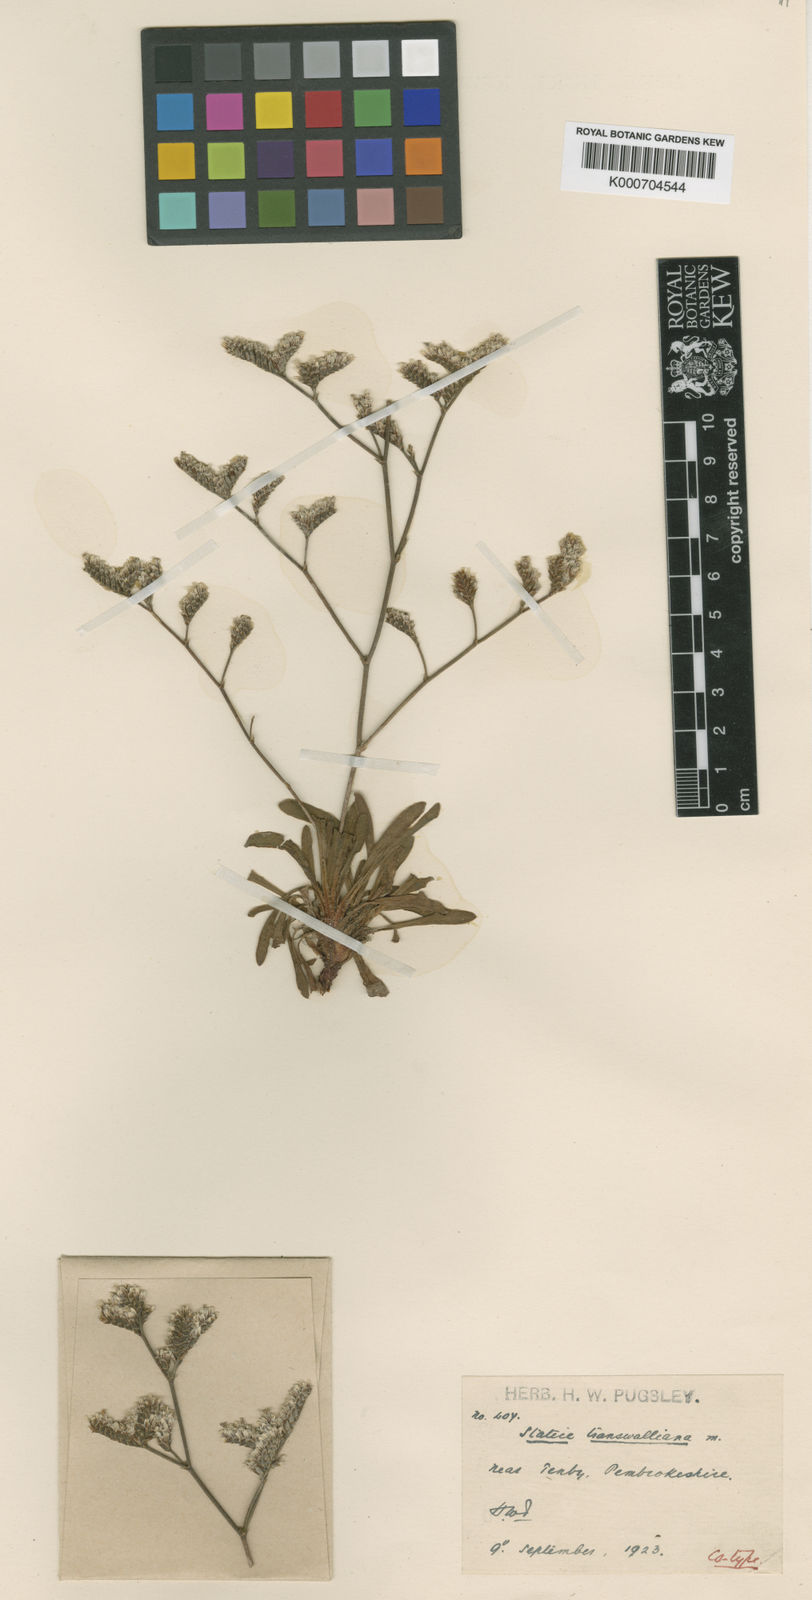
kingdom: Plantae
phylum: Tracheophyta
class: Magnoliopsida
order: Caryophyllales
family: Plumbaginaceae
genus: Limonium
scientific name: Limonium
